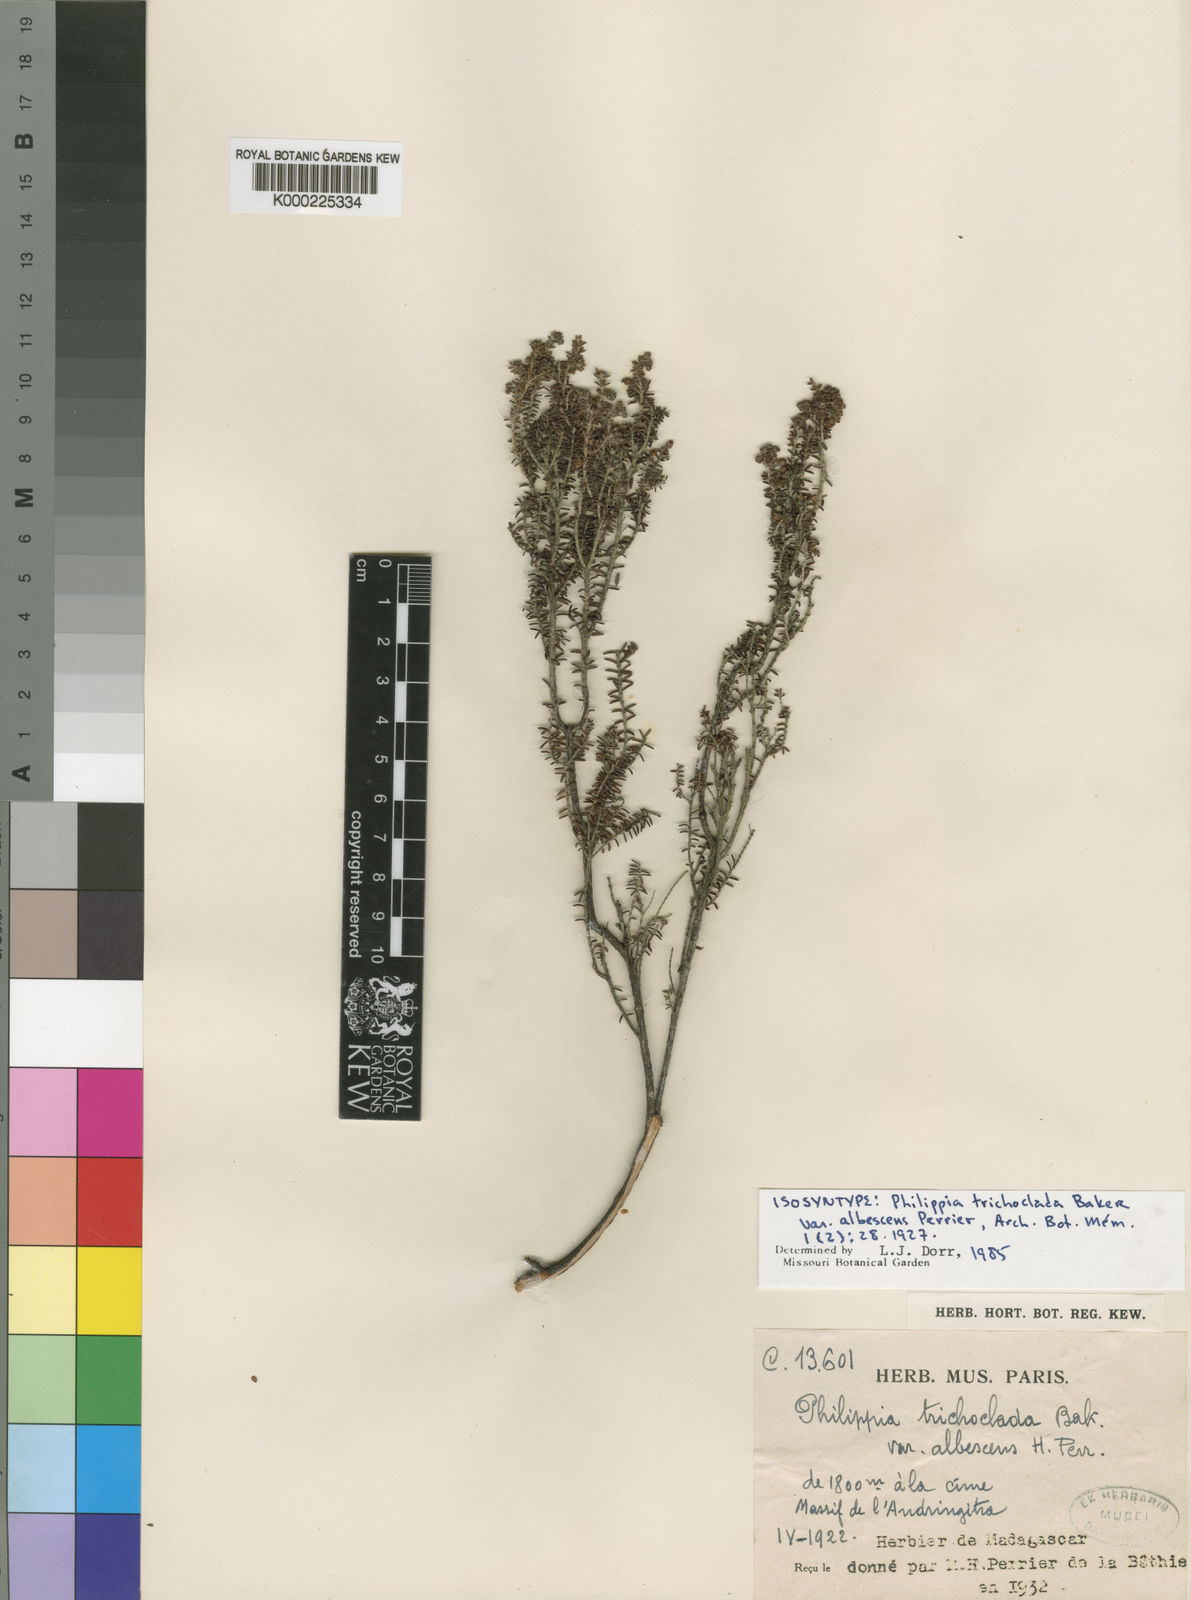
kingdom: Plantae
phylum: Tracheophyta
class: Magnoliopsida
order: Ericales
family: Ericaceae
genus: Erica
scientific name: Erica hebeclada
